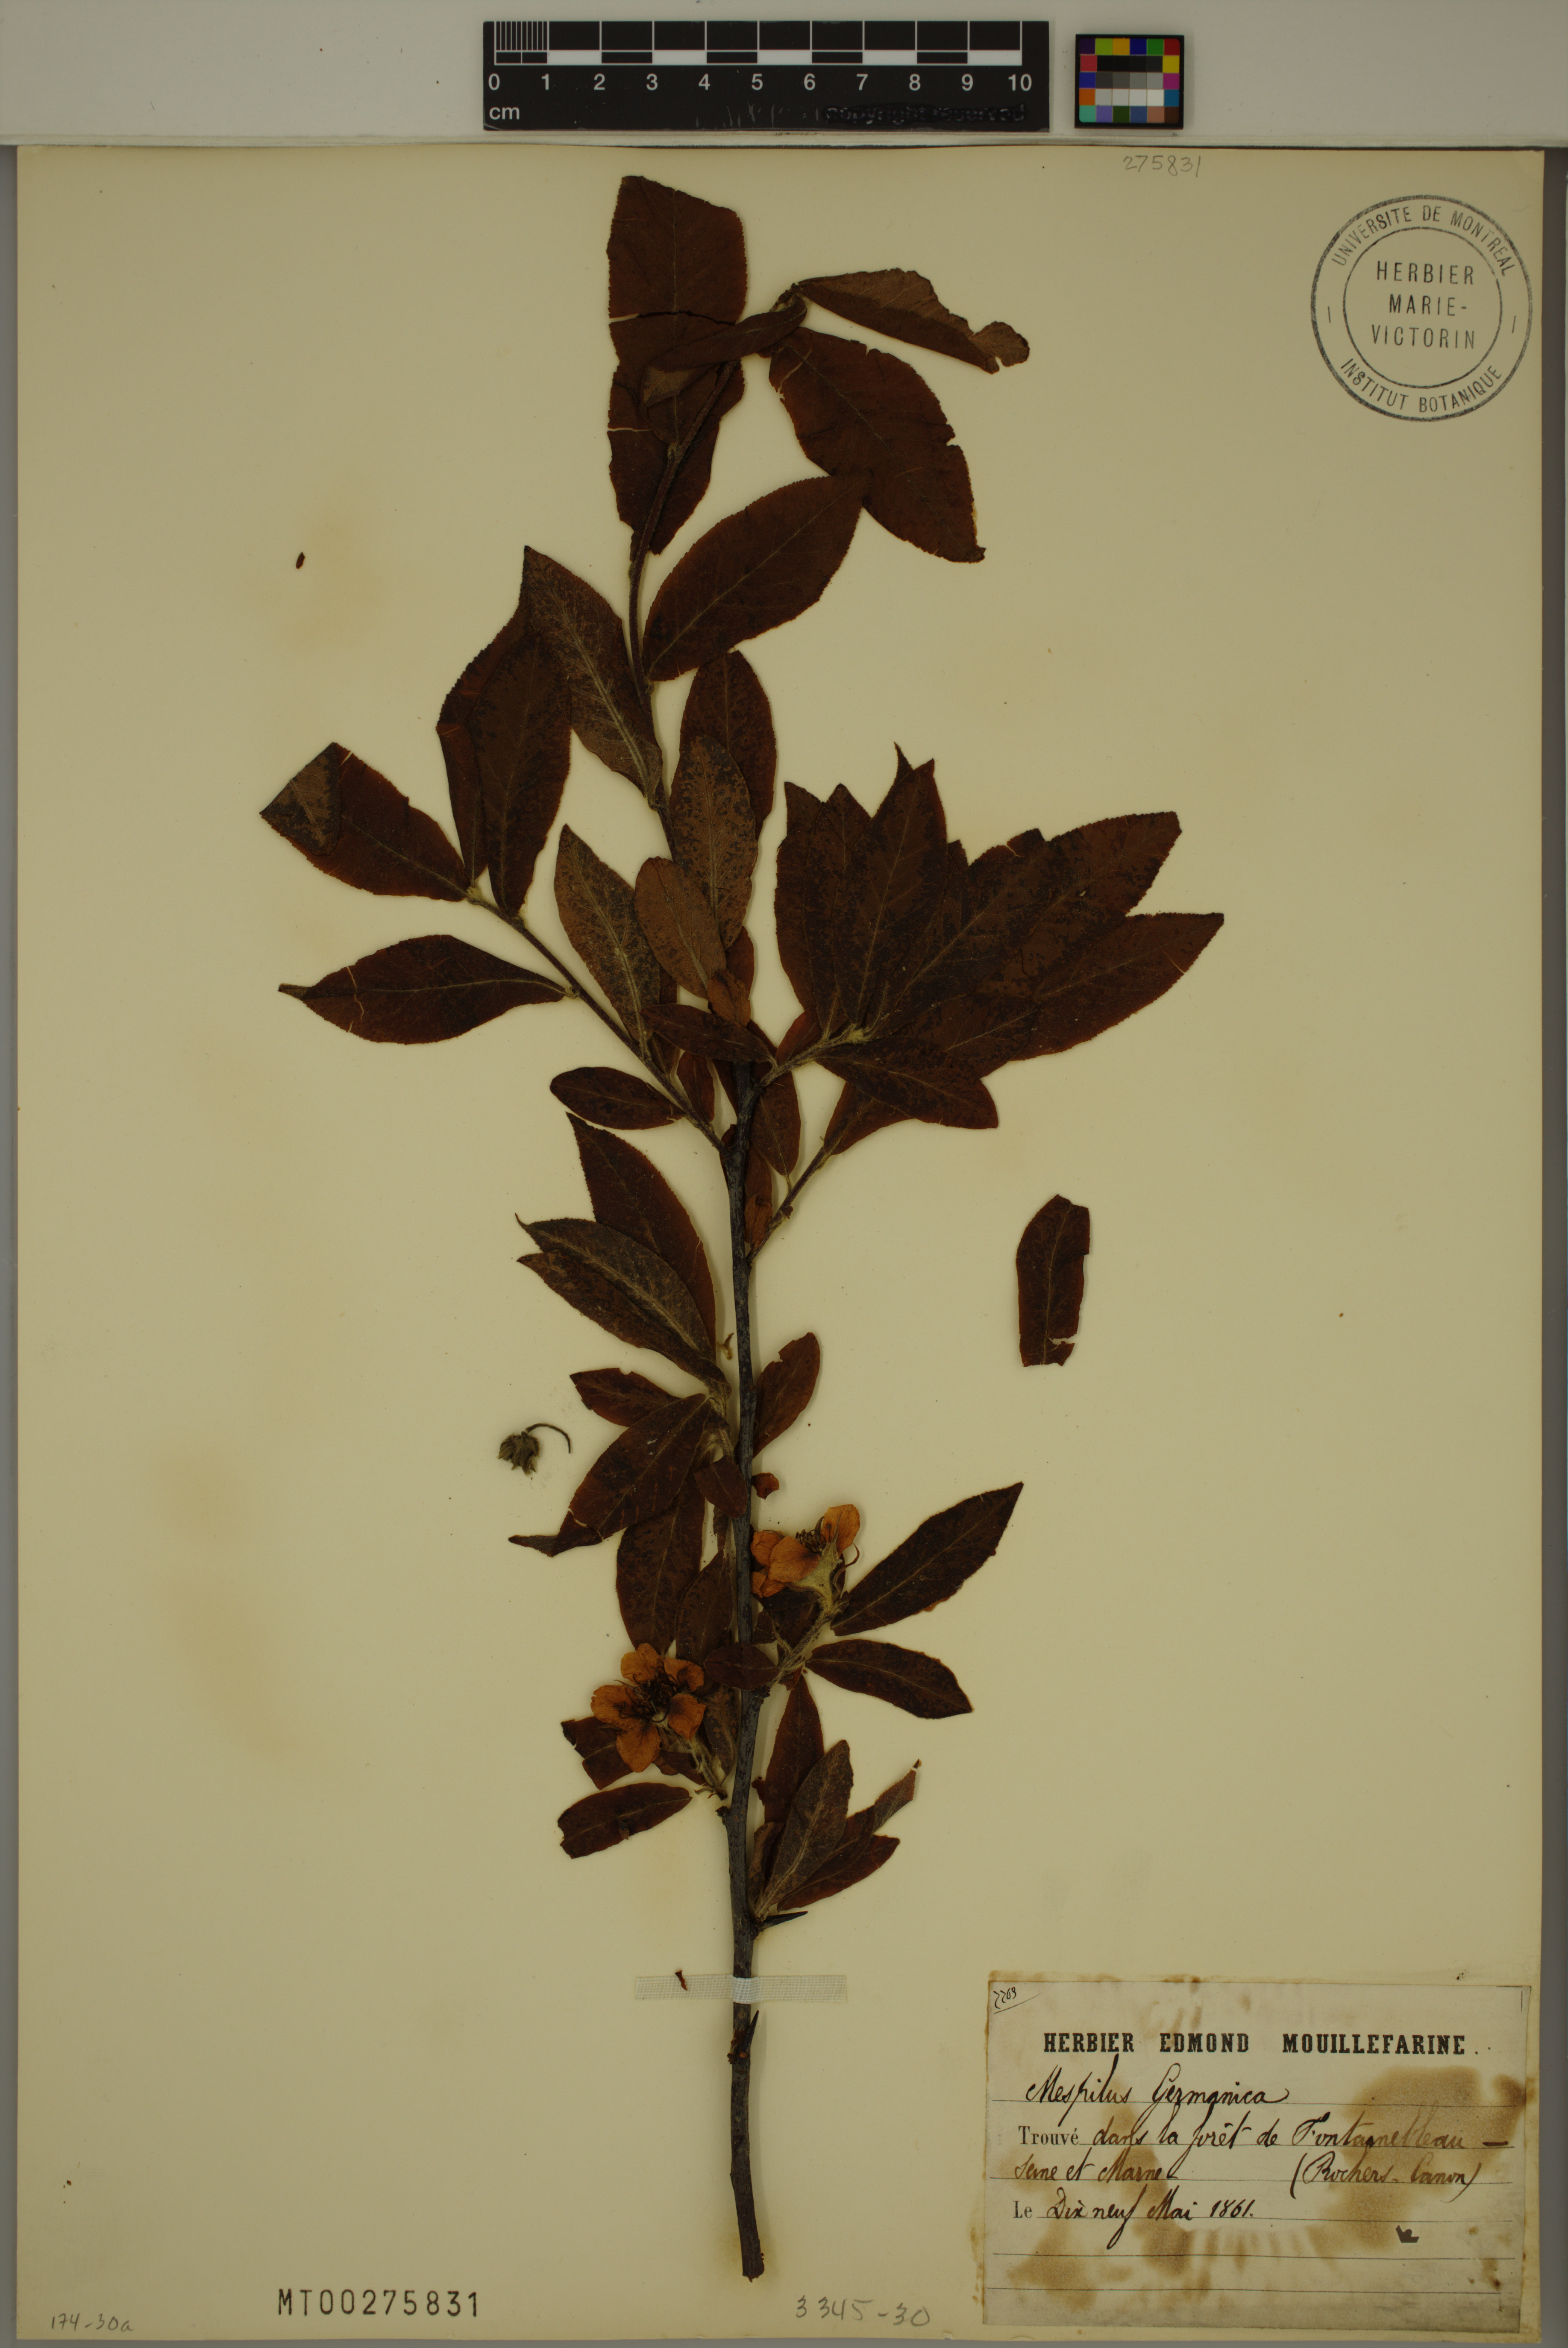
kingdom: Plantae
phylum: Tracheophyta
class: Magnoliopsida
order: Rosales
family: Rosaceae
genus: Mespilus
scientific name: Mespilus germanica
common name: Medlar
